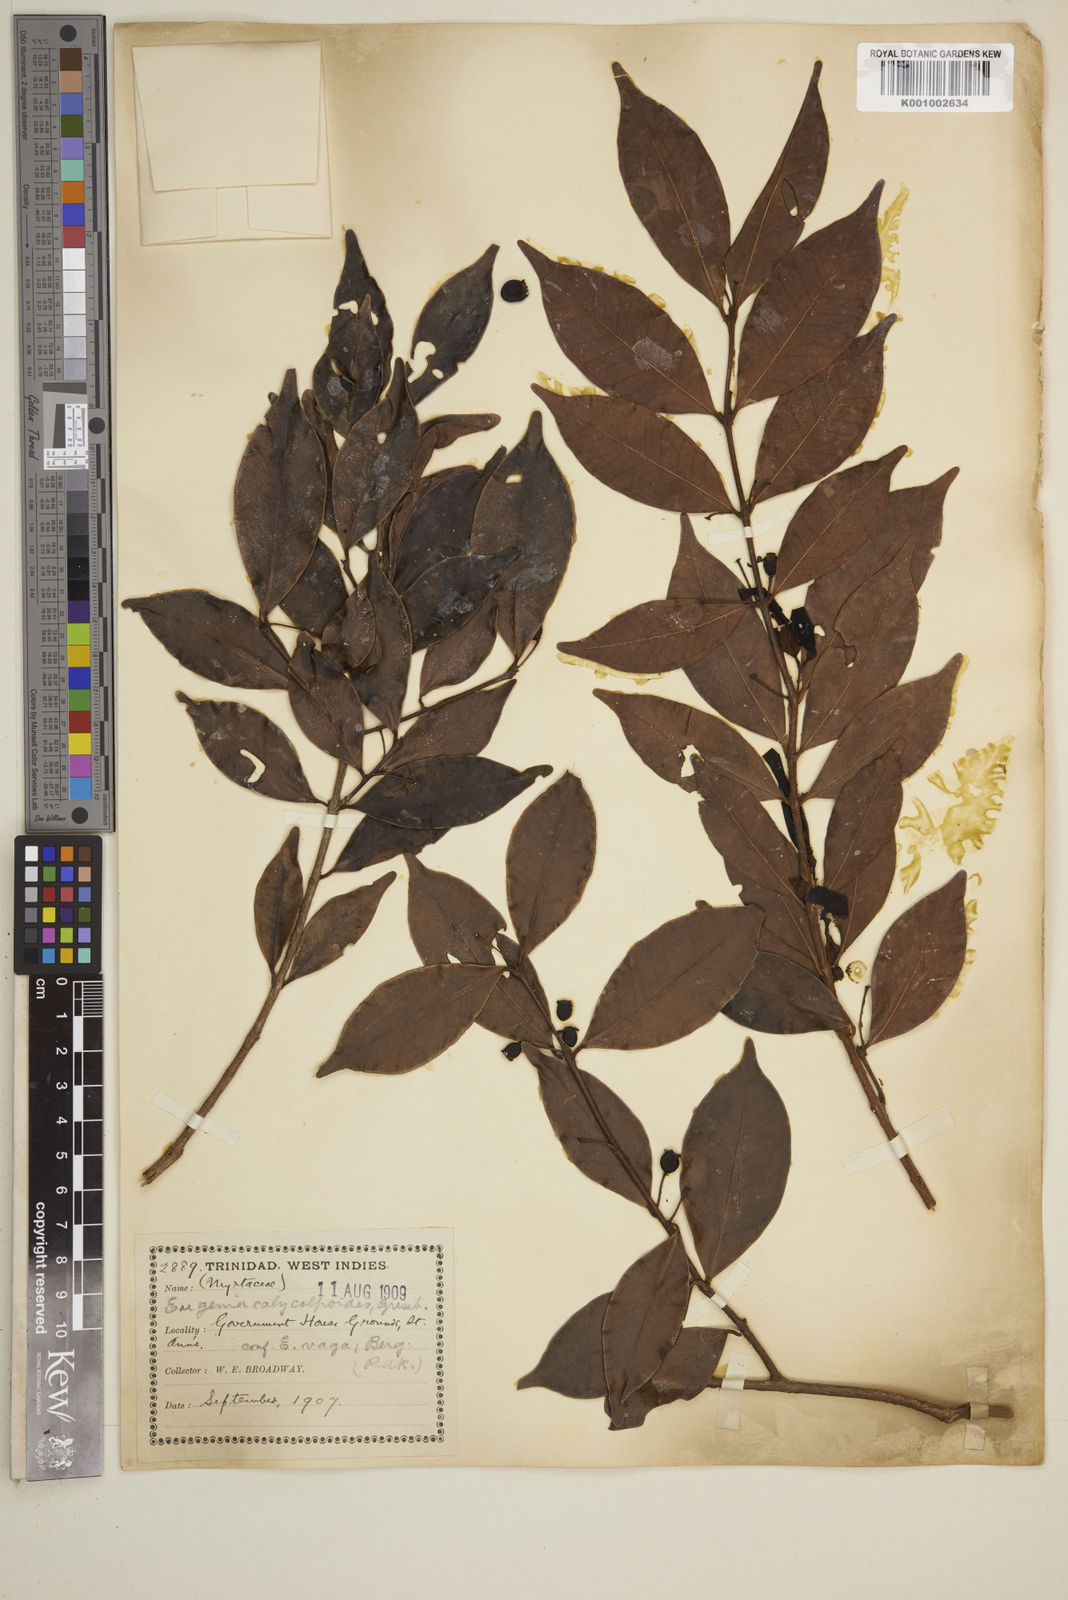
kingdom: Plantae
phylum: Tracheophyta
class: Magnoliopsida
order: Myrtales
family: Myrtaceae
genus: Eugenia
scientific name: Eugenia
